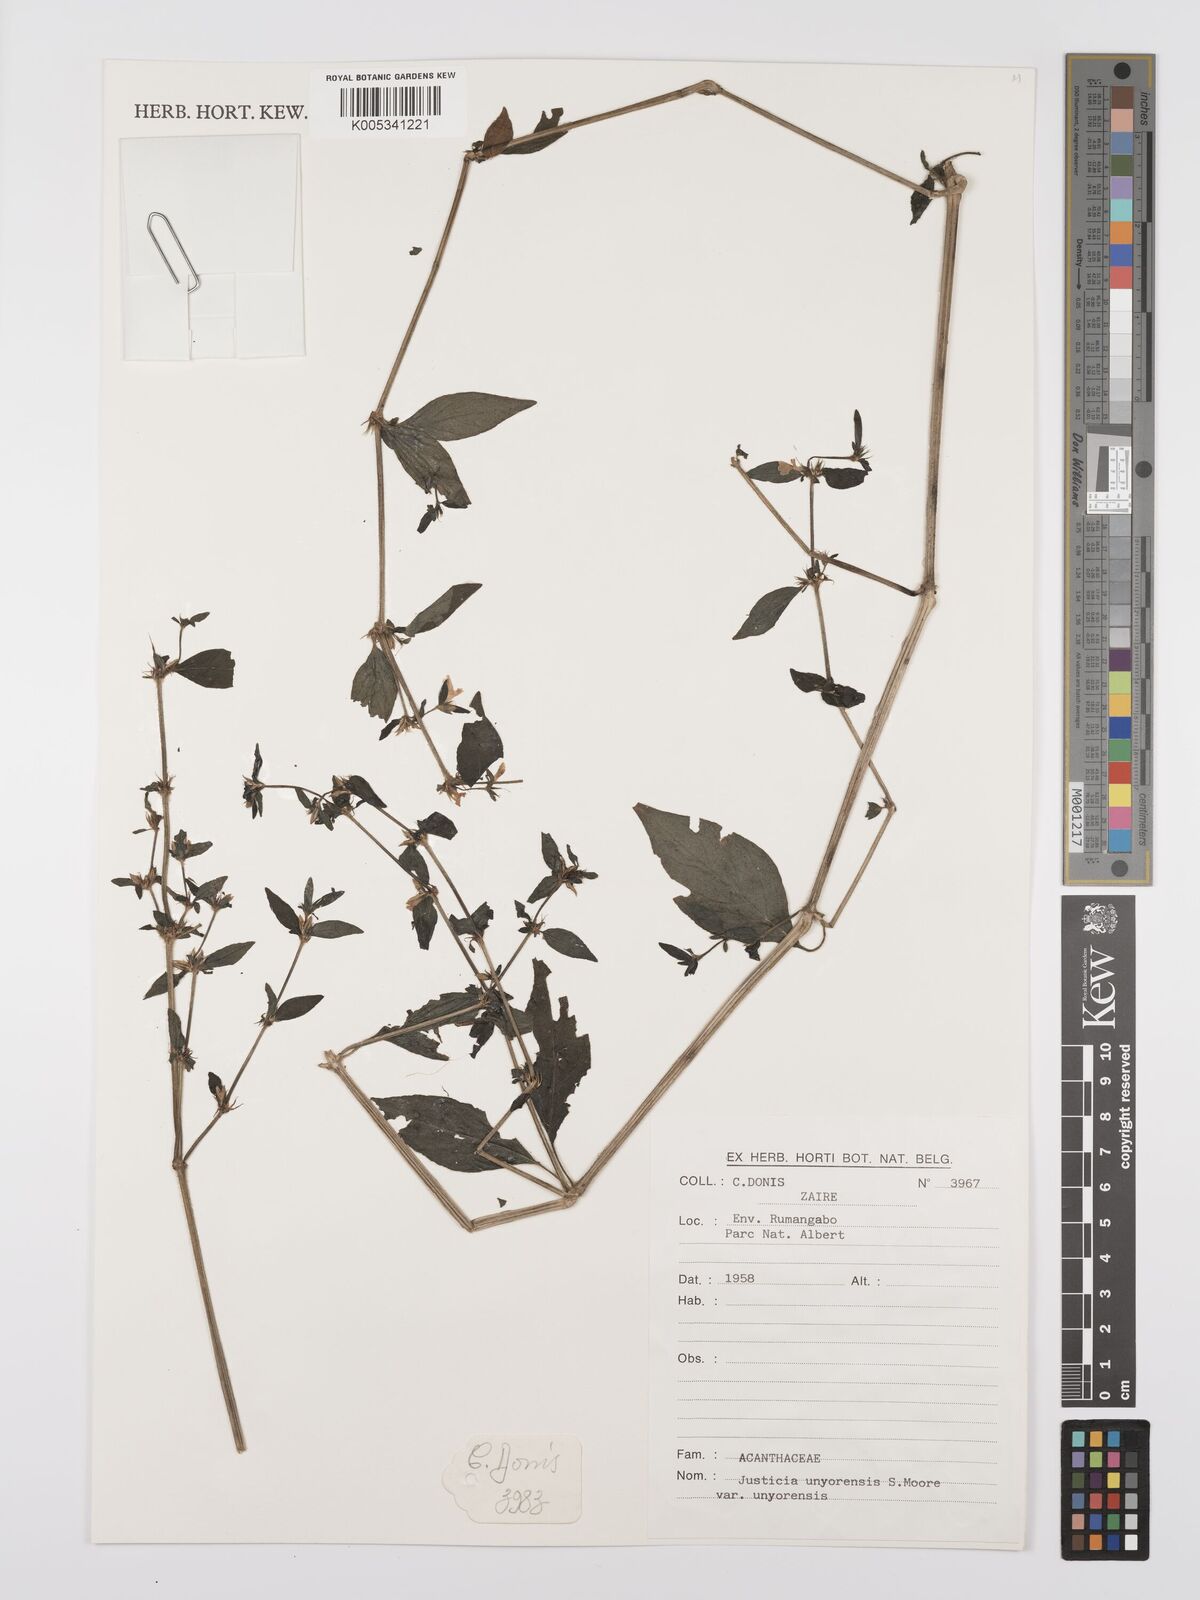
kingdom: Plantae
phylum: Tracheophyta
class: Magnoliopsida
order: Lamiales
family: Acanthaceae
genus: Justicia
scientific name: Justicia unyorensis
